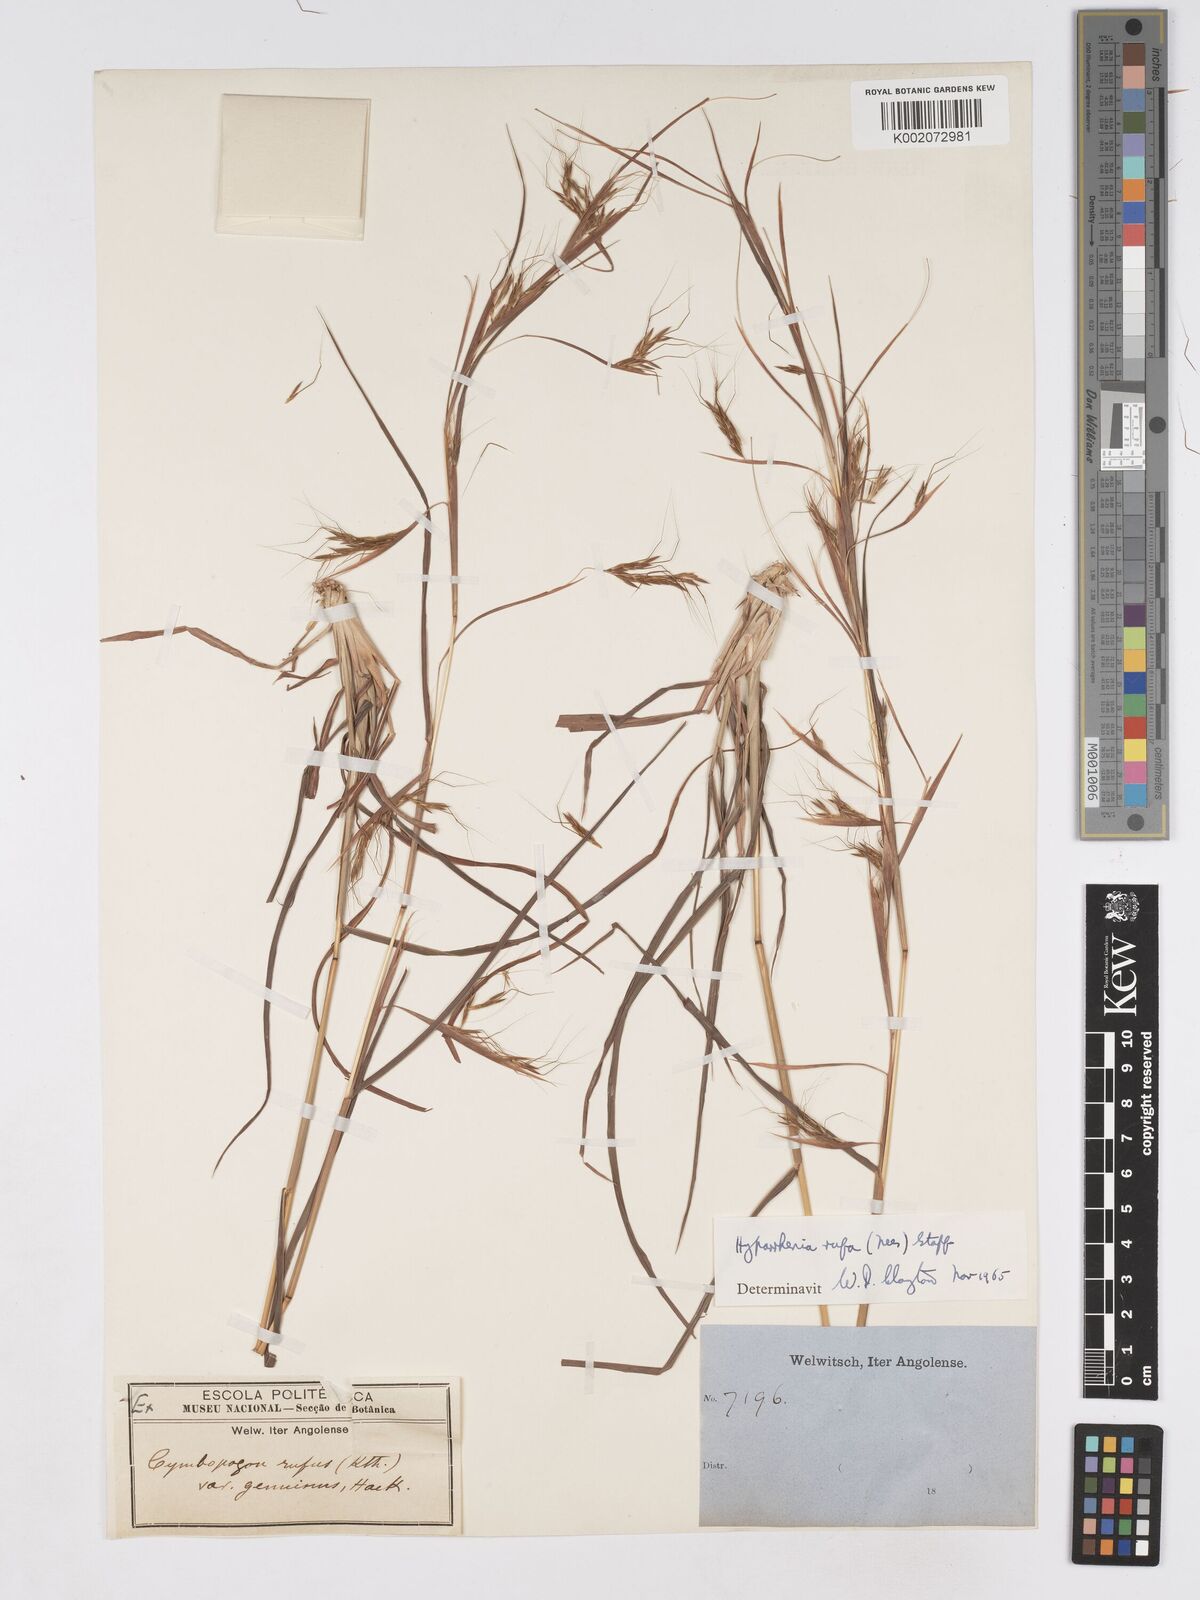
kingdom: Plantae
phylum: Tracheophyta
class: Liliopsida
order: Poales
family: Poaceae
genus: Hyparrhenia
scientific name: Hyparrhenia rufa
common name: Jaraguagrass
